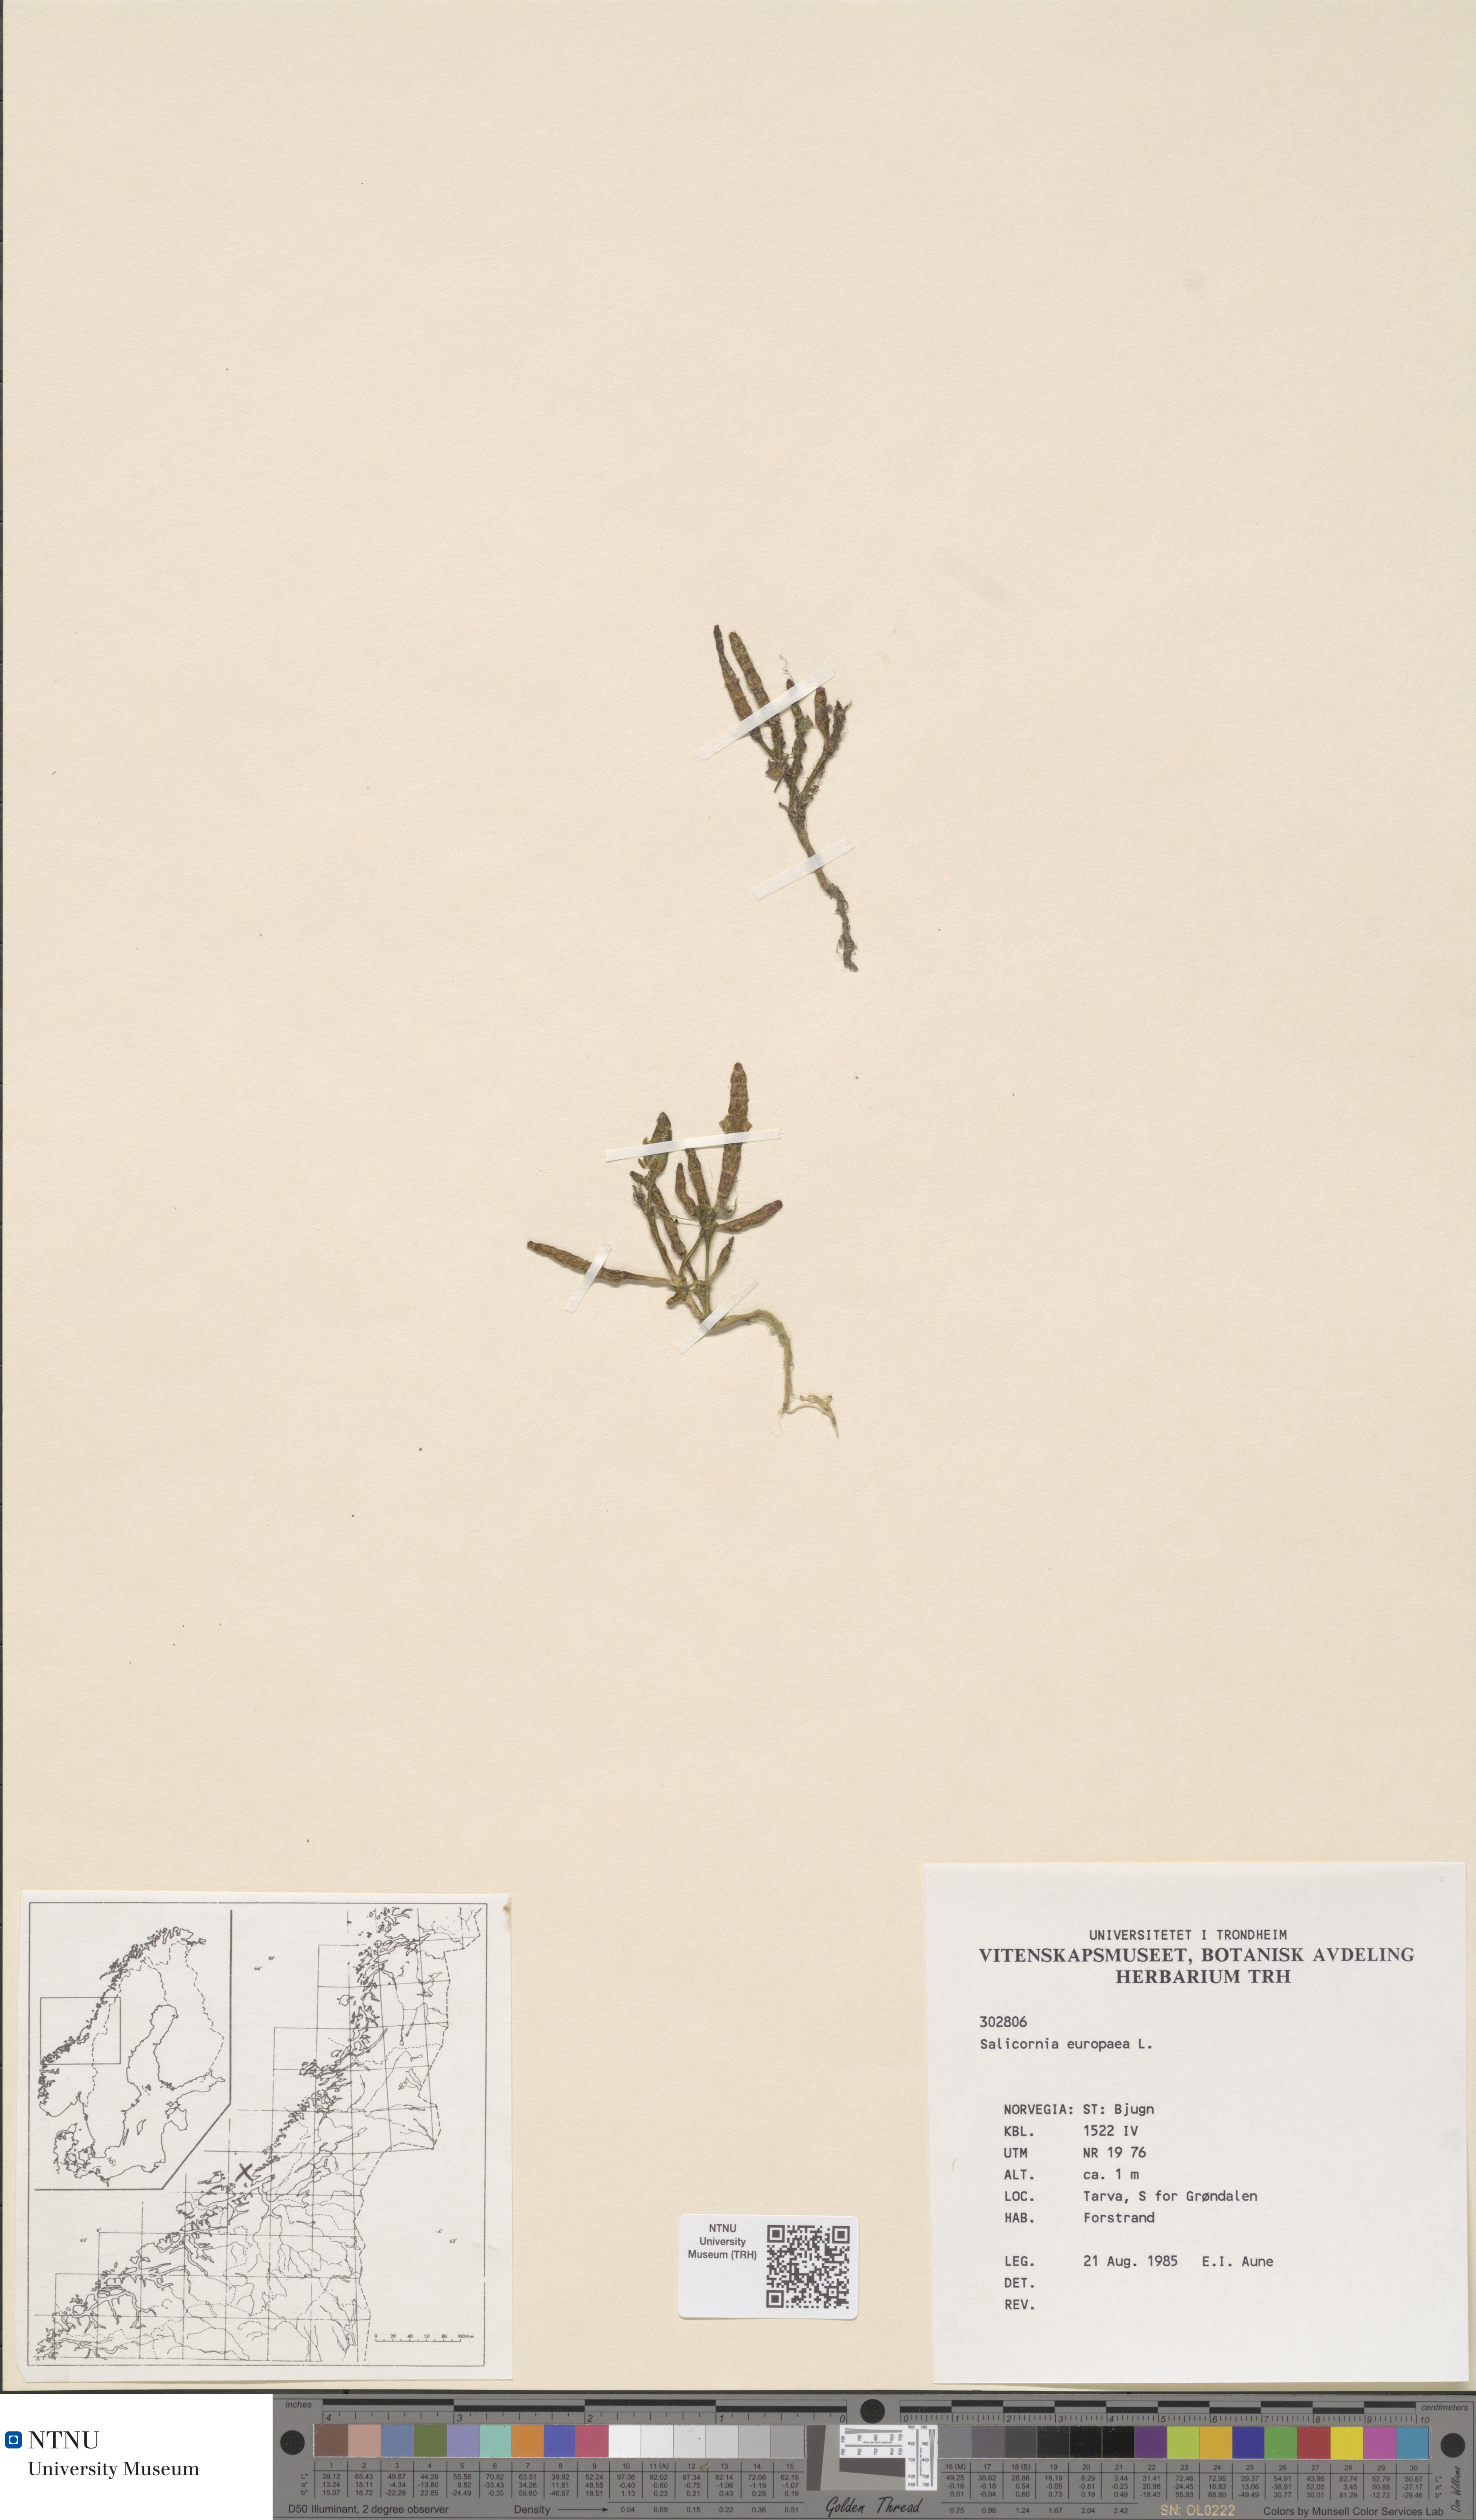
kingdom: Plantae
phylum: Tracheophyta
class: Magnoliopsida
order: Caryophyllales
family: Amaranthaceae
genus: Salicornia
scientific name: Salicornia europaea
